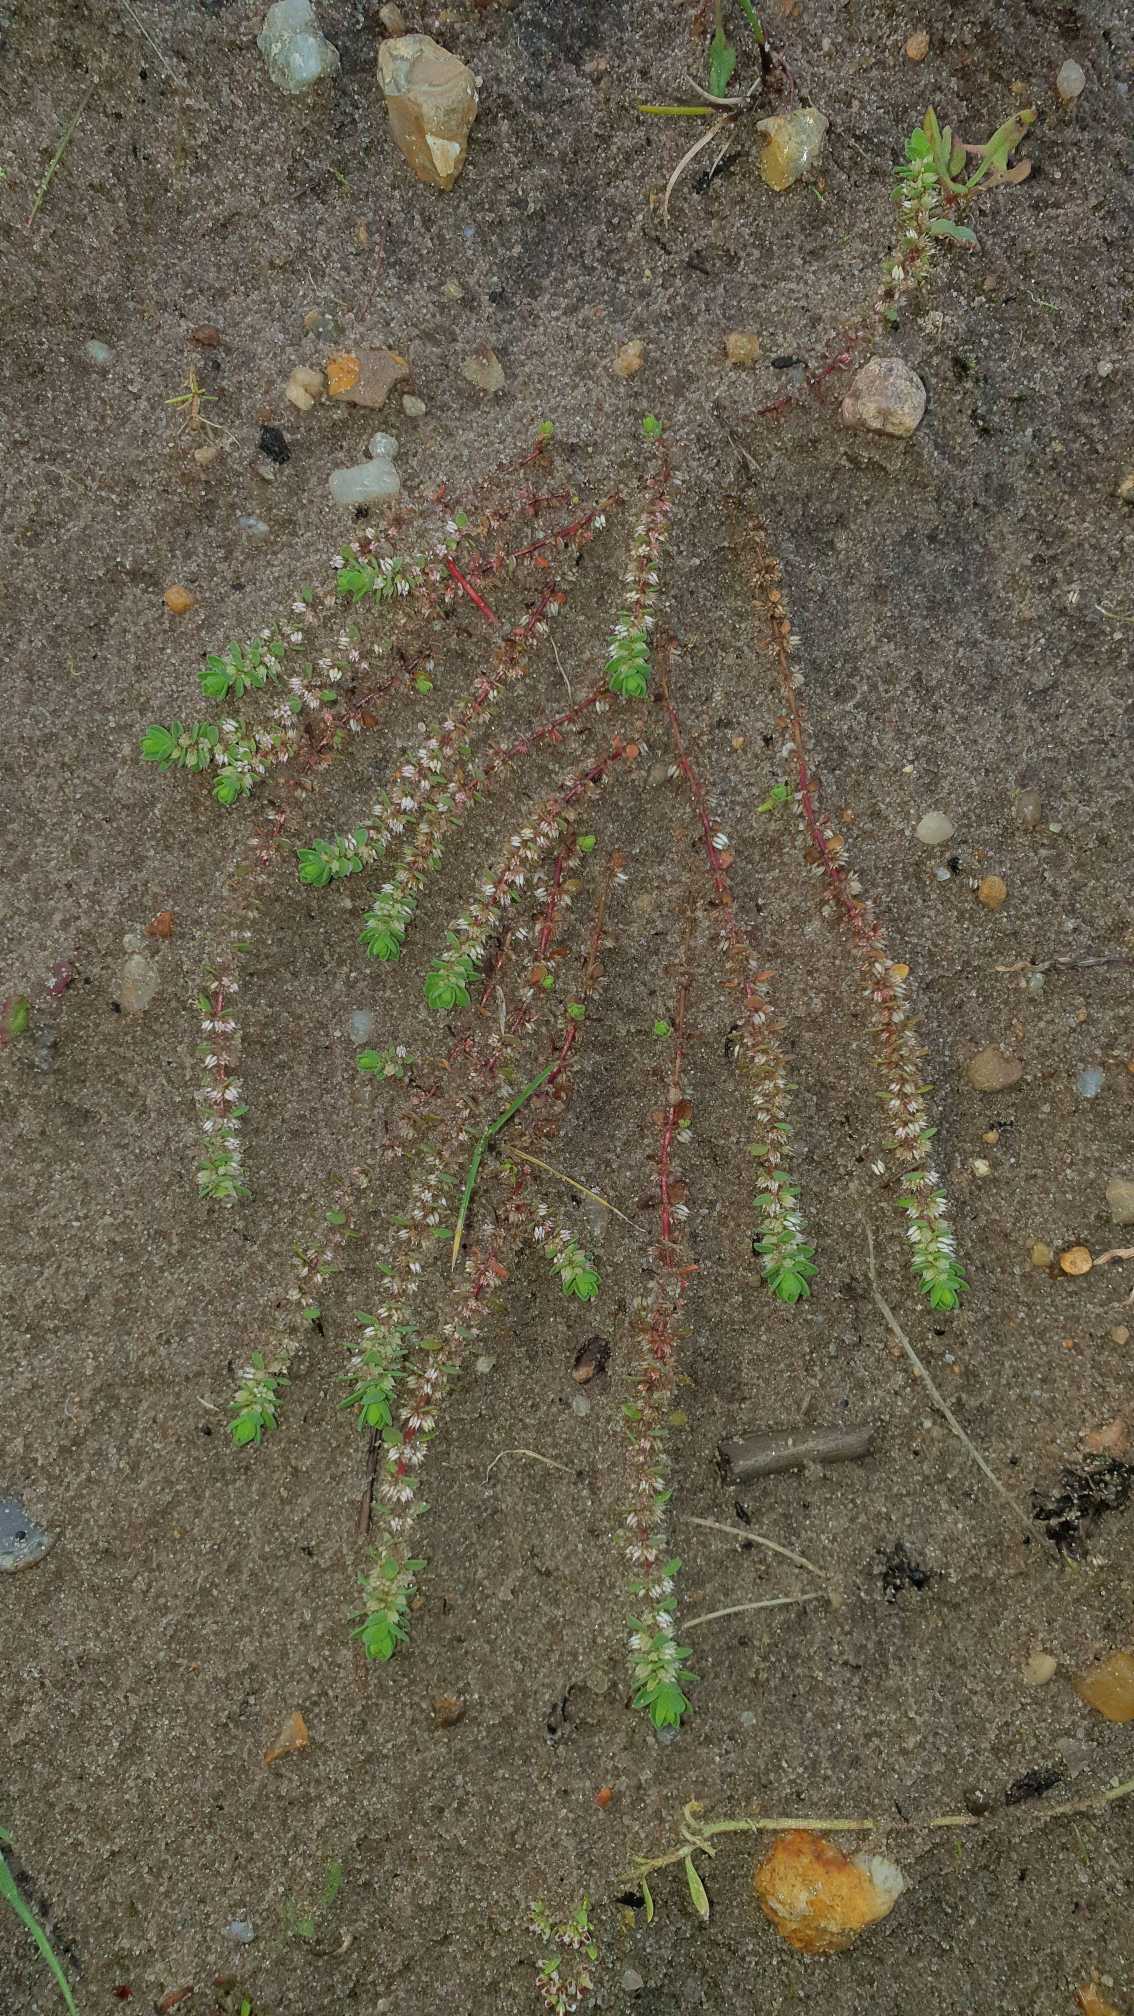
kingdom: Plantae
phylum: Tracheophyta
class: Magnoliopsida
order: Caryophyllales
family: Caryophyllaceae
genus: Illecebrum
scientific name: Illecebrum verticillatum
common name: Bruskbæger
